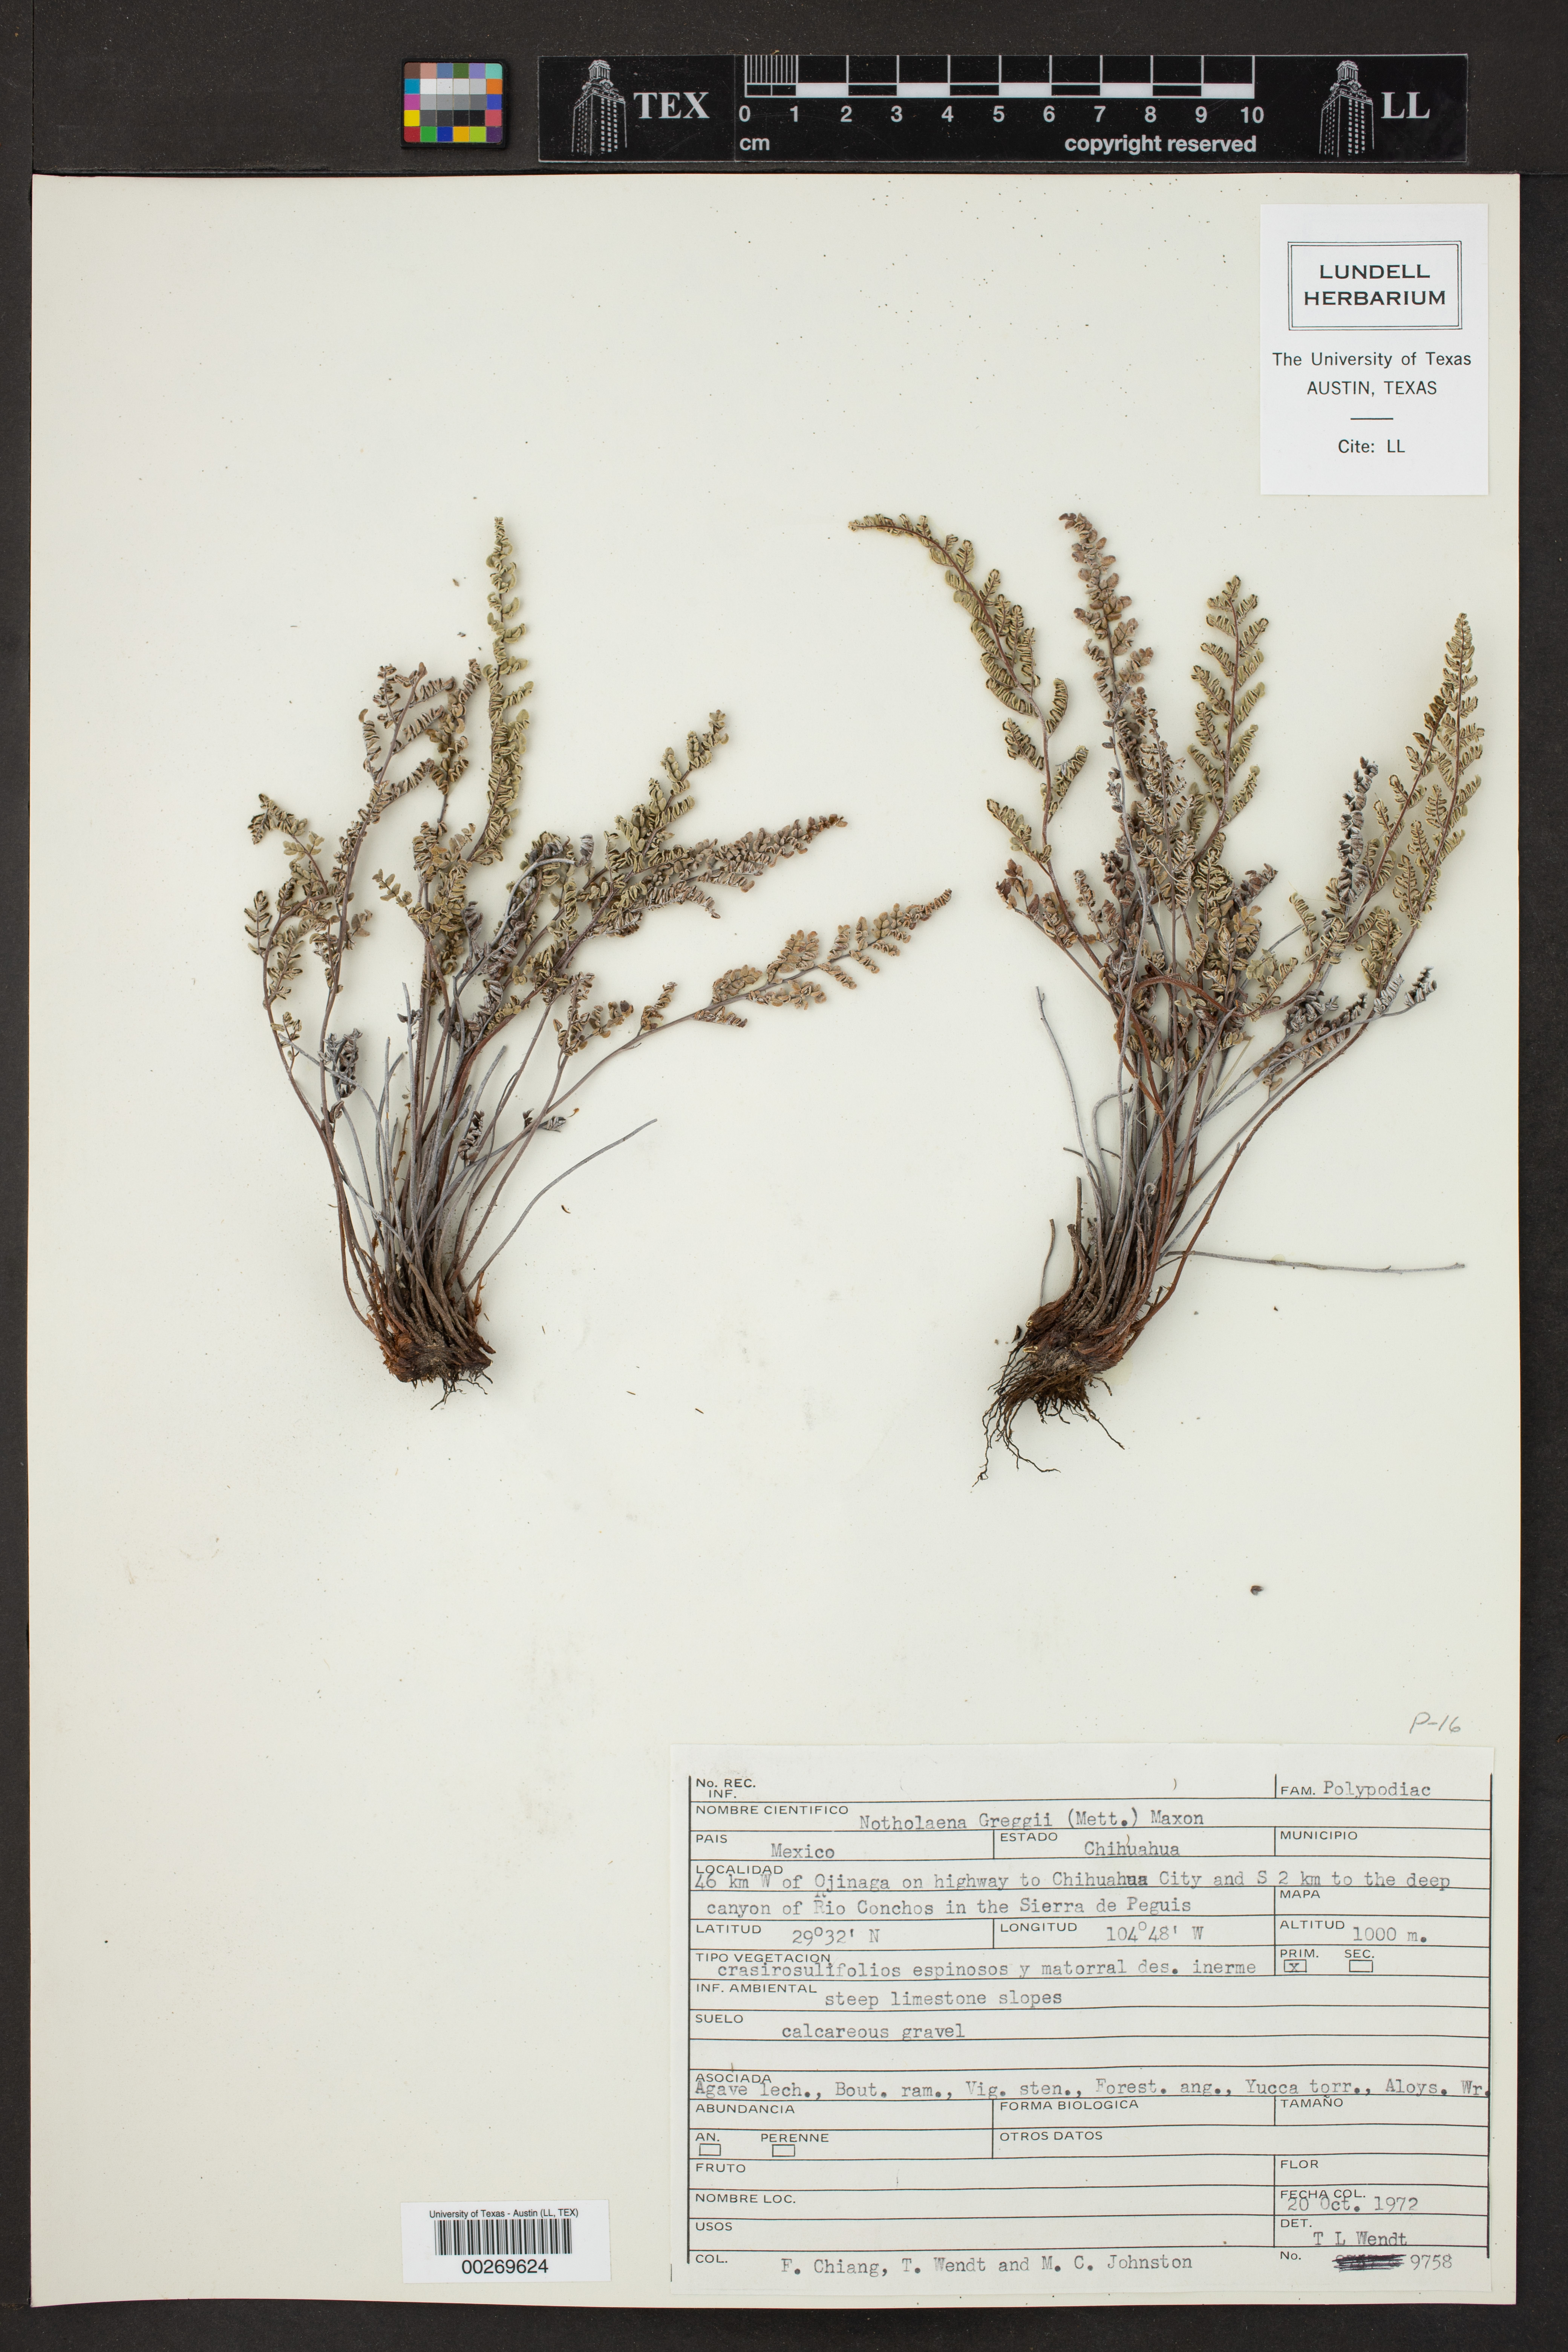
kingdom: Plantae
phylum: Tracheophyta
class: Polypodiopsida
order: Polypodiales
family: Pteridaceae
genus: Notholaena
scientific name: Notholaena greggii
